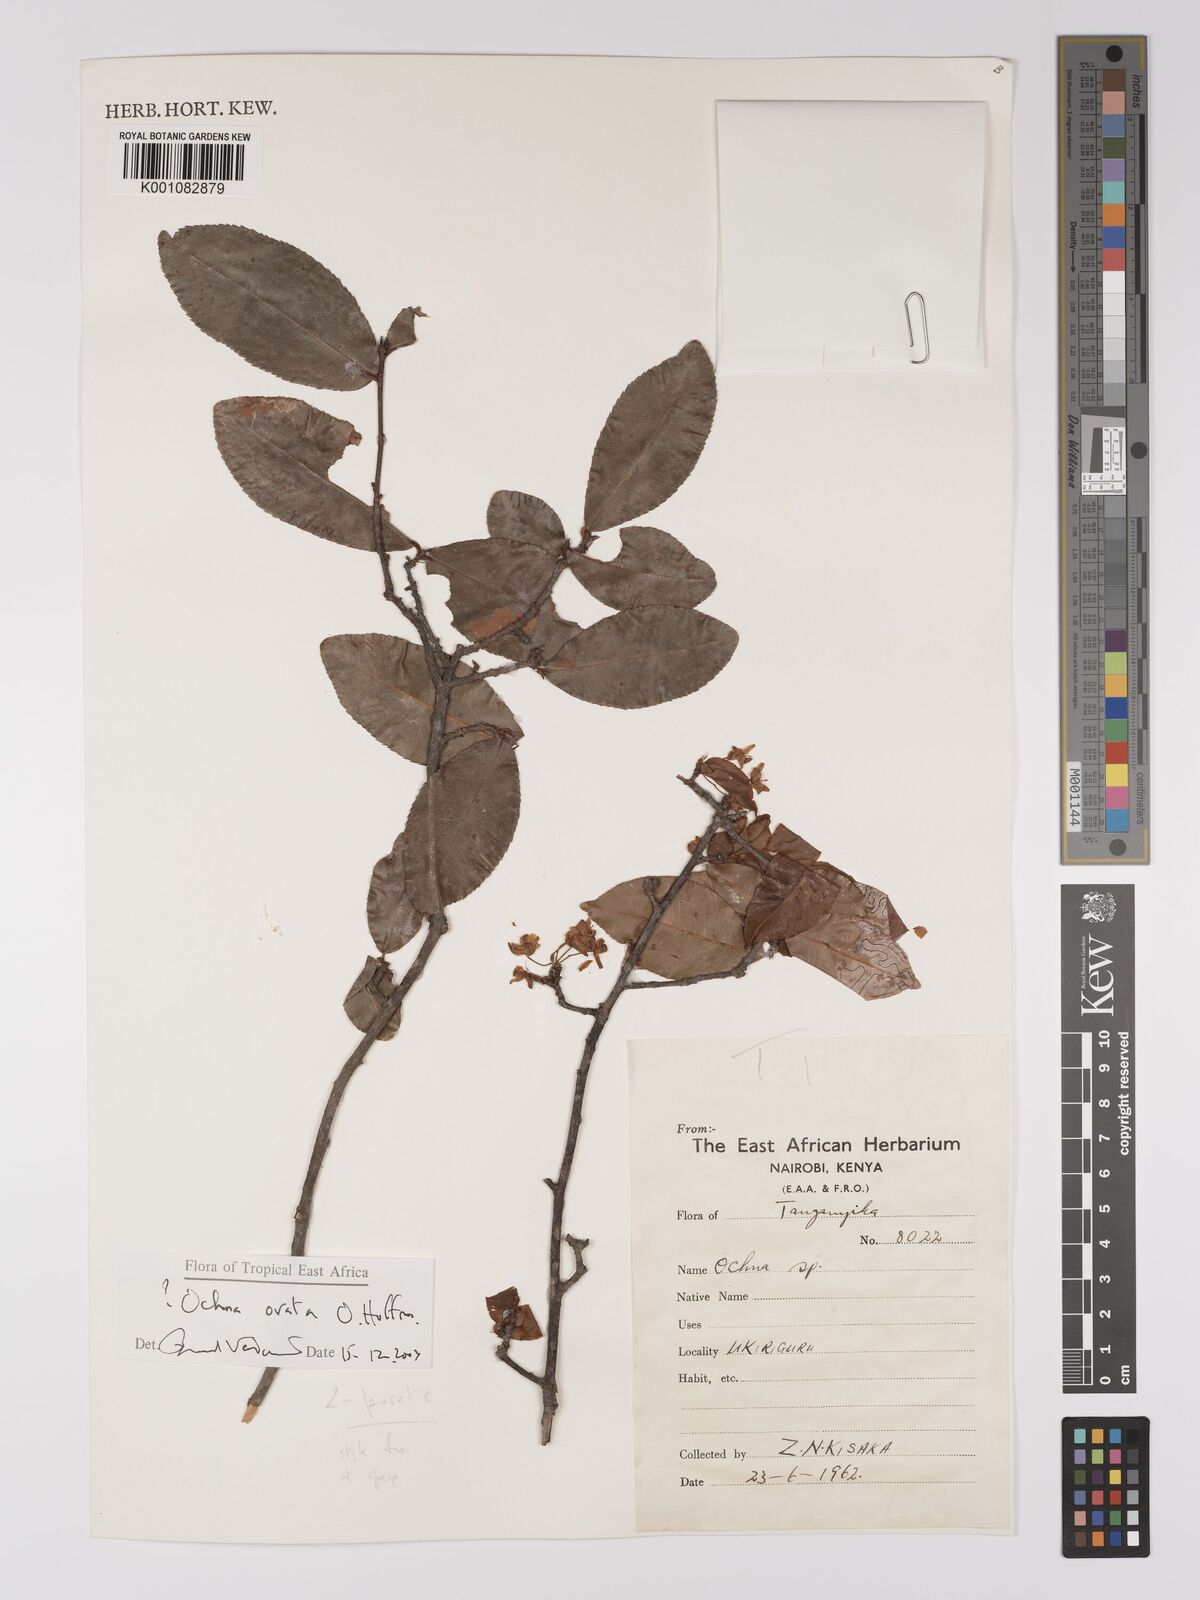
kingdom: Plantae
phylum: Tracheophyta
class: Magnoliopsida
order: Malpighiales
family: Ochnaceae
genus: Ochna
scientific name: Ochna ovata
